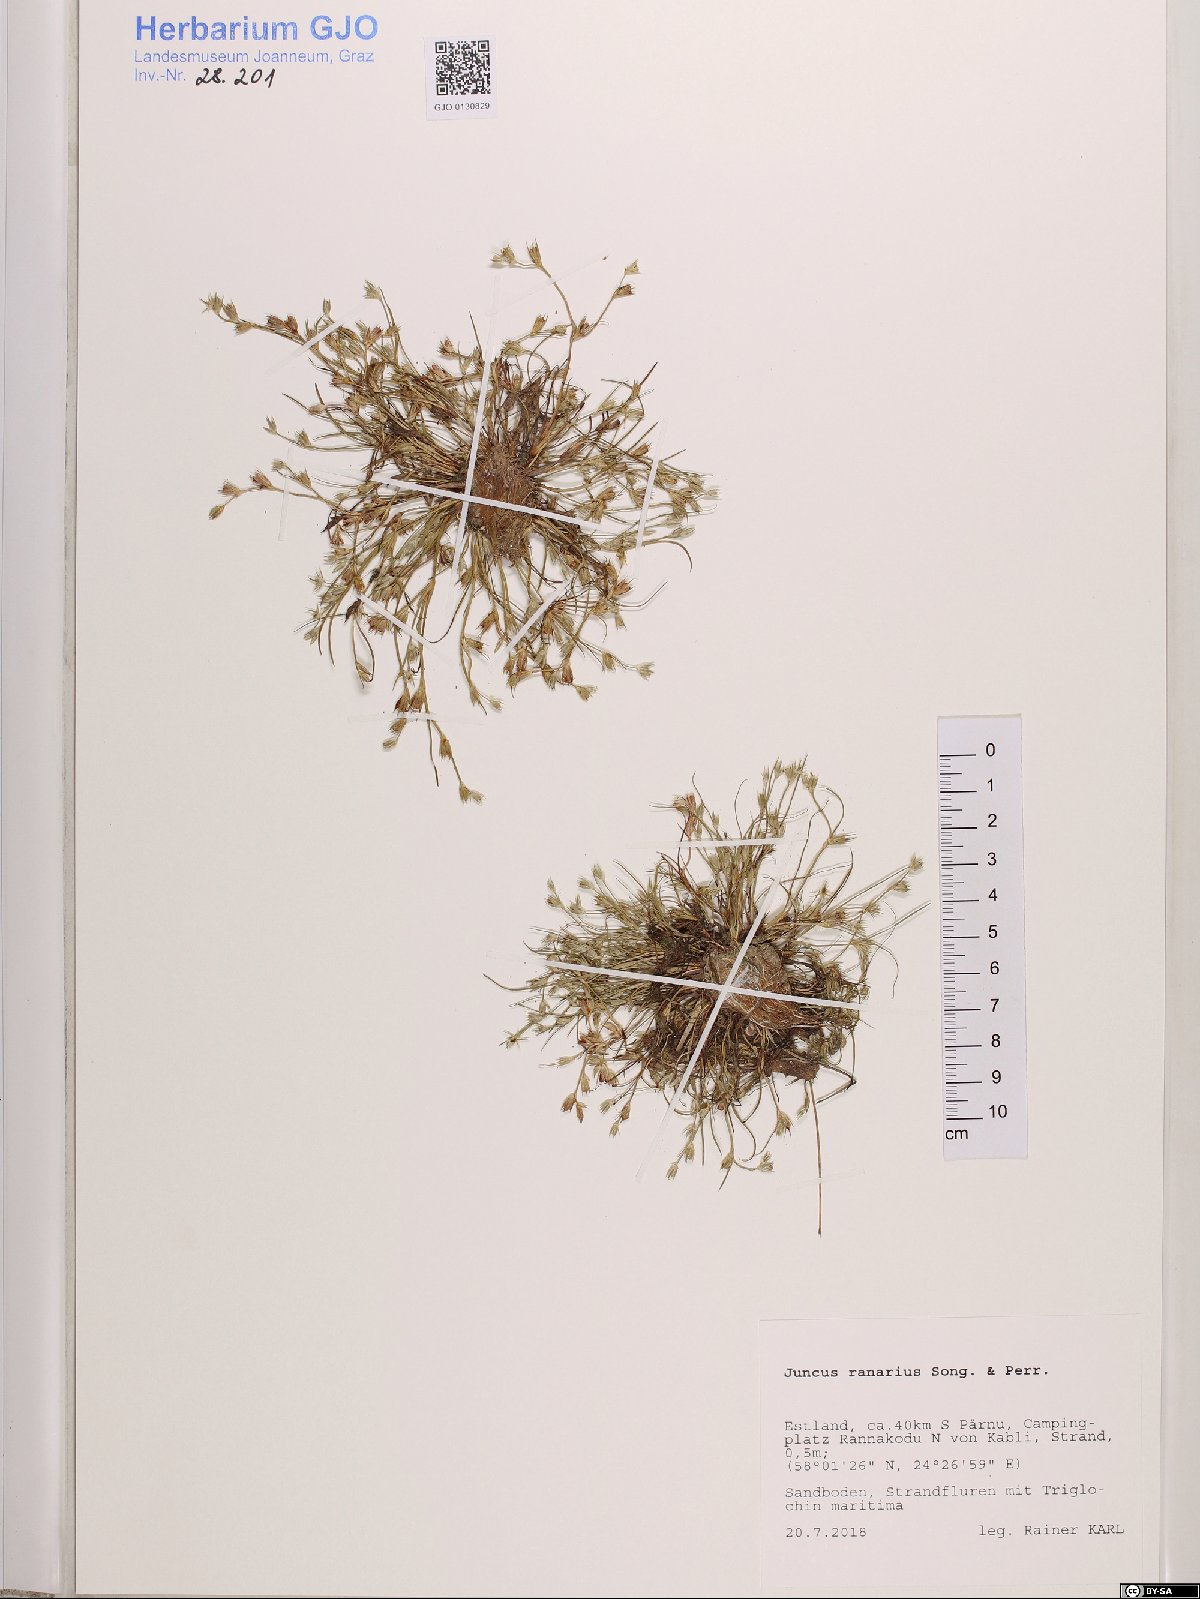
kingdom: Plantae
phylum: Tracheophyta
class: Liliopsida
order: Poales
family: Juncaceae
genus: Juncus
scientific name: Juncus ranarius
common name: Frog rush
